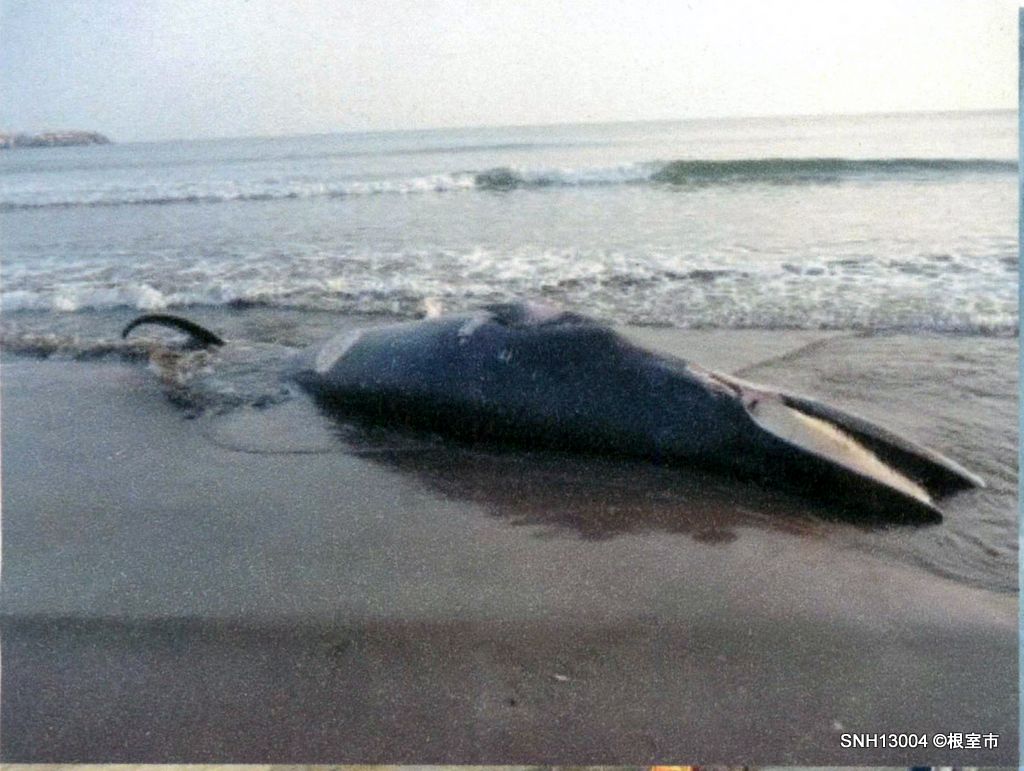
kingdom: Animalia
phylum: Chordata
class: Mammalia
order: Cetacea
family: Balaenopteridae
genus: Balaenoptera
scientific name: Balaenoptera acutorostrata
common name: Minke whale
